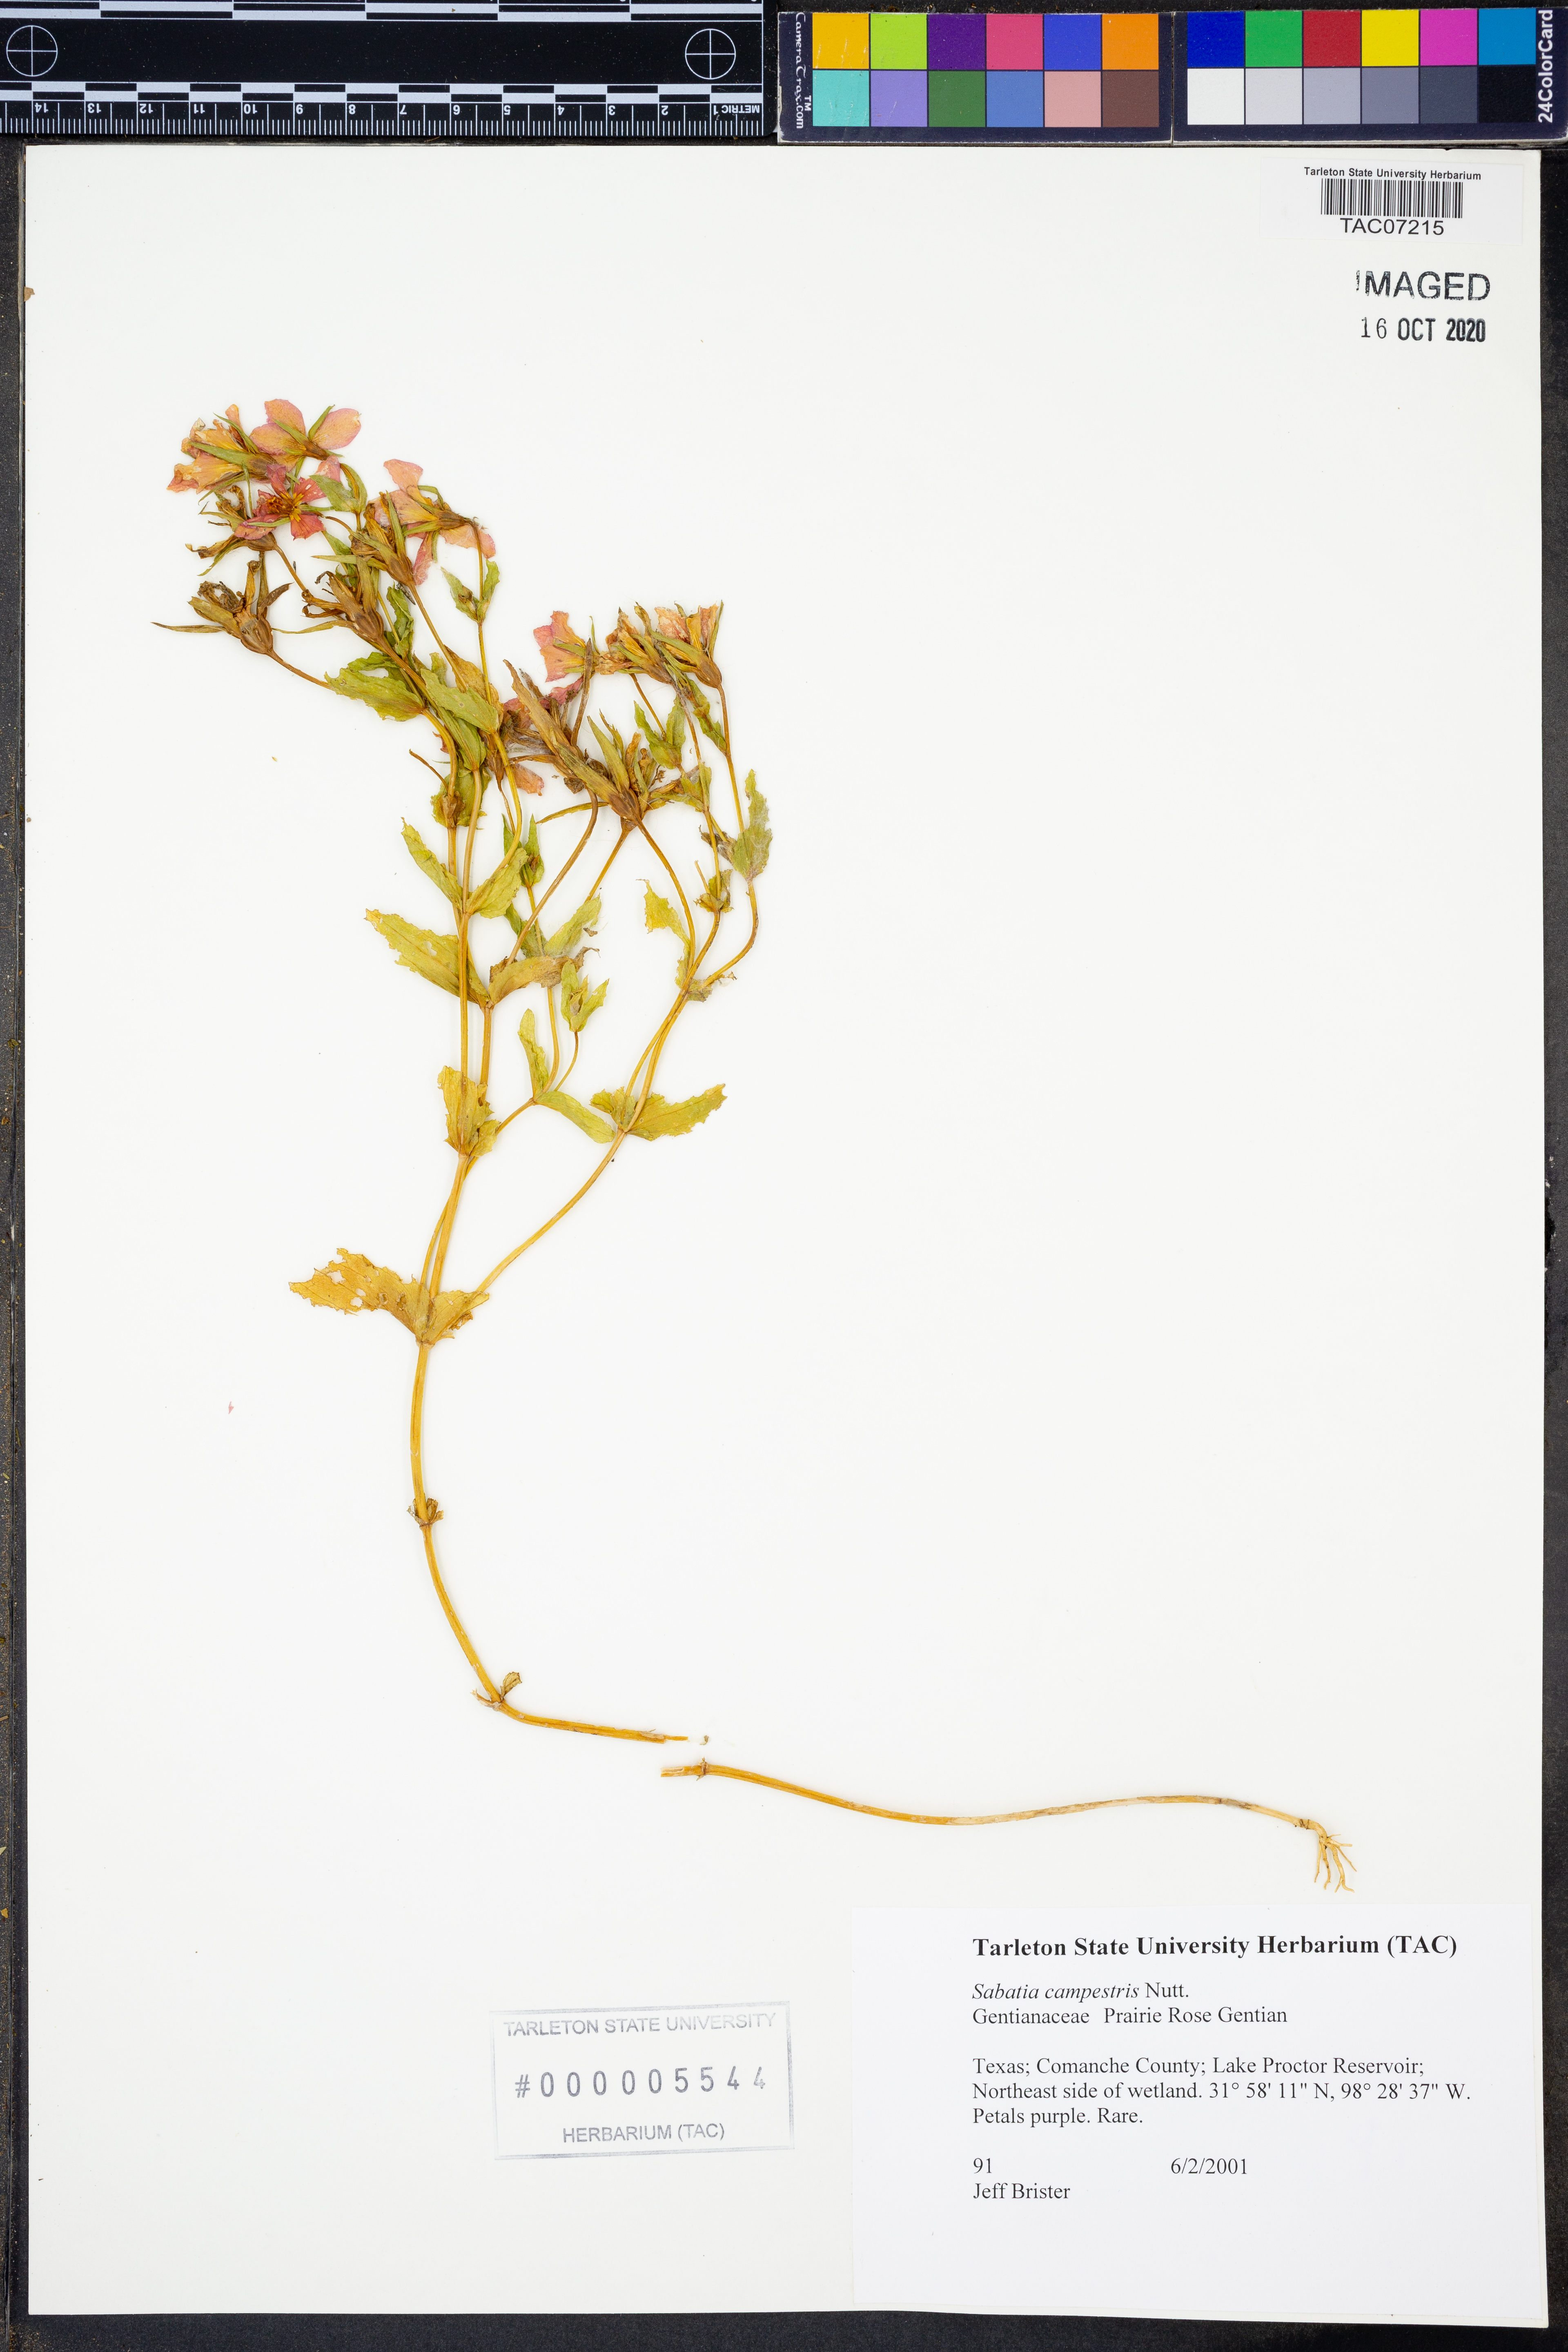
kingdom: Plantae
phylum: Tracheophyta
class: Magnoliopsida
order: Gentianales
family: Gentianaceae
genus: Sabatia
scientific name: Sabatia campestris
